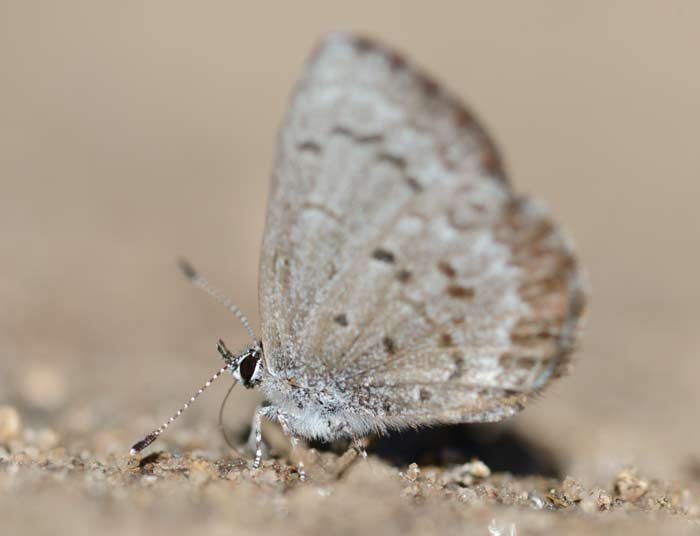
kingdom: Animalia
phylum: Arthropoda
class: Insecta
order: Lepidoptera
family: Lycaenidae
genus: Celastrina
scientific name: Celastrina lucia
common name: Northern Spring Azure
